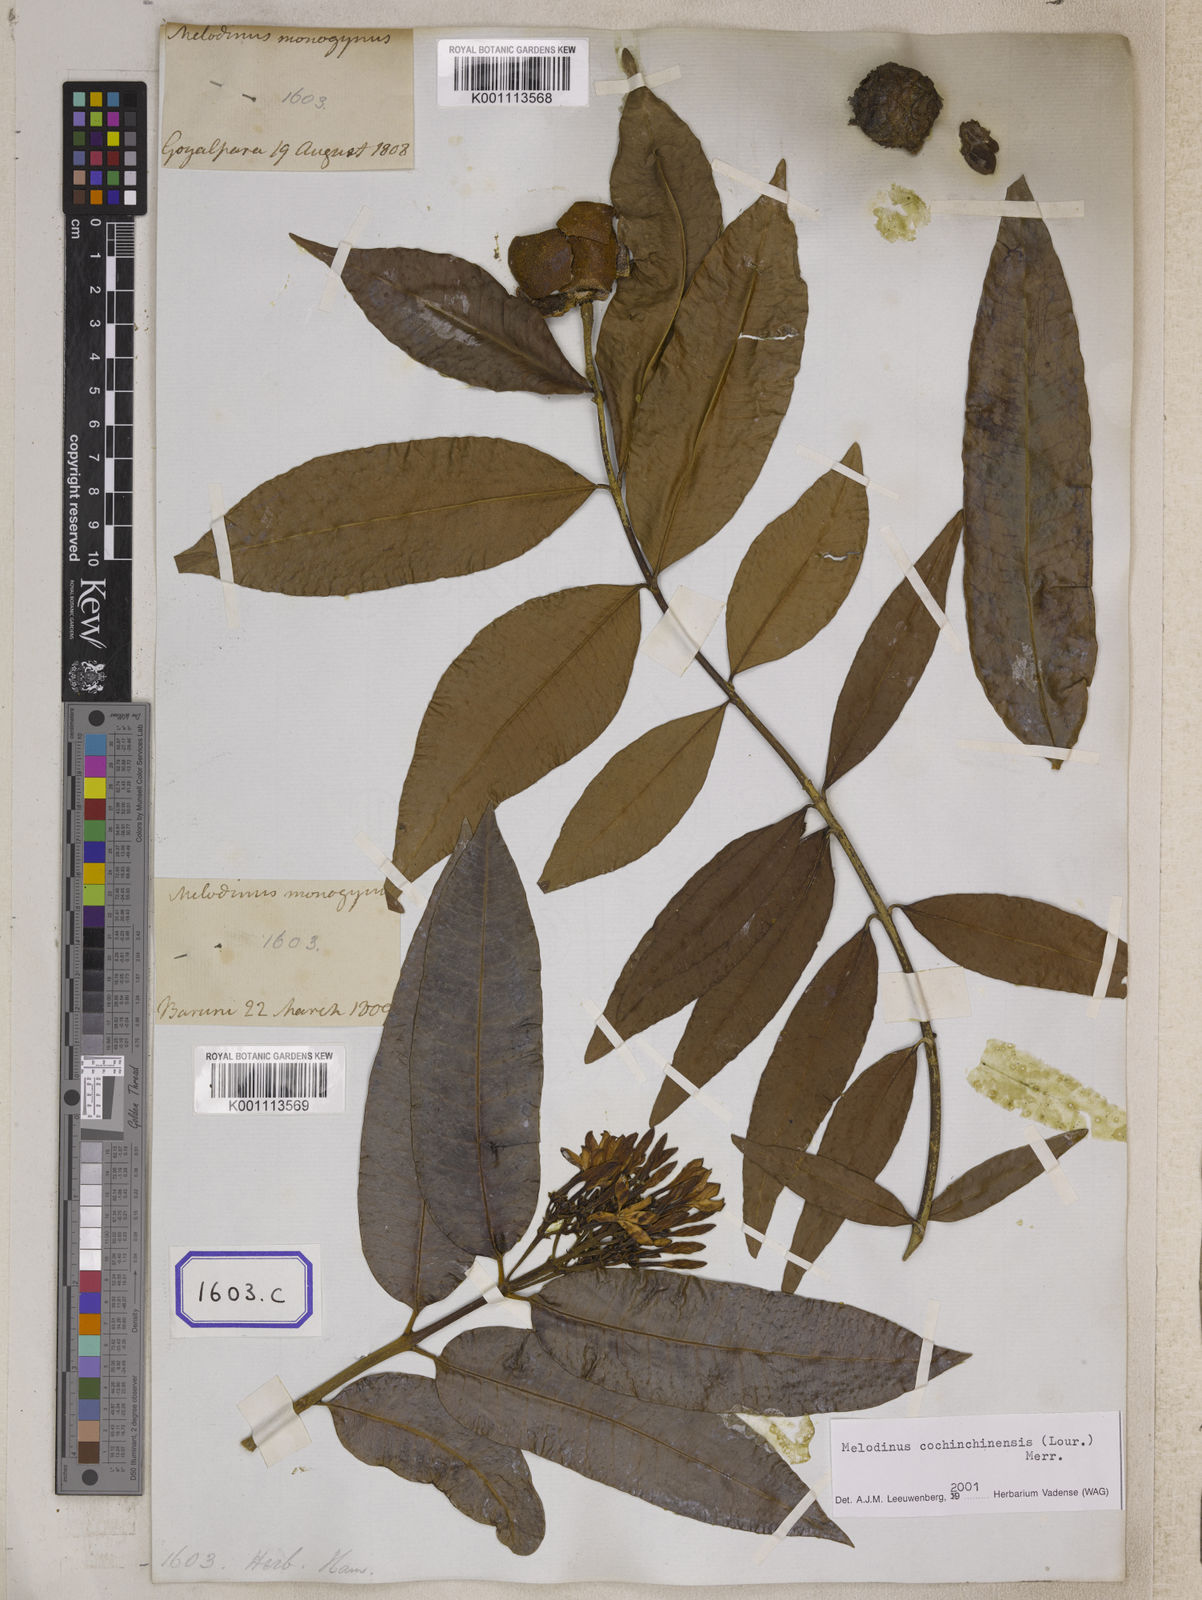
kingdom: Plantae
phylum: Tracheophyta
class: Magnoliopsida
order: Gentianales
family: Apocynaceae
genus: Melodinus
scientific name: Melodinus
